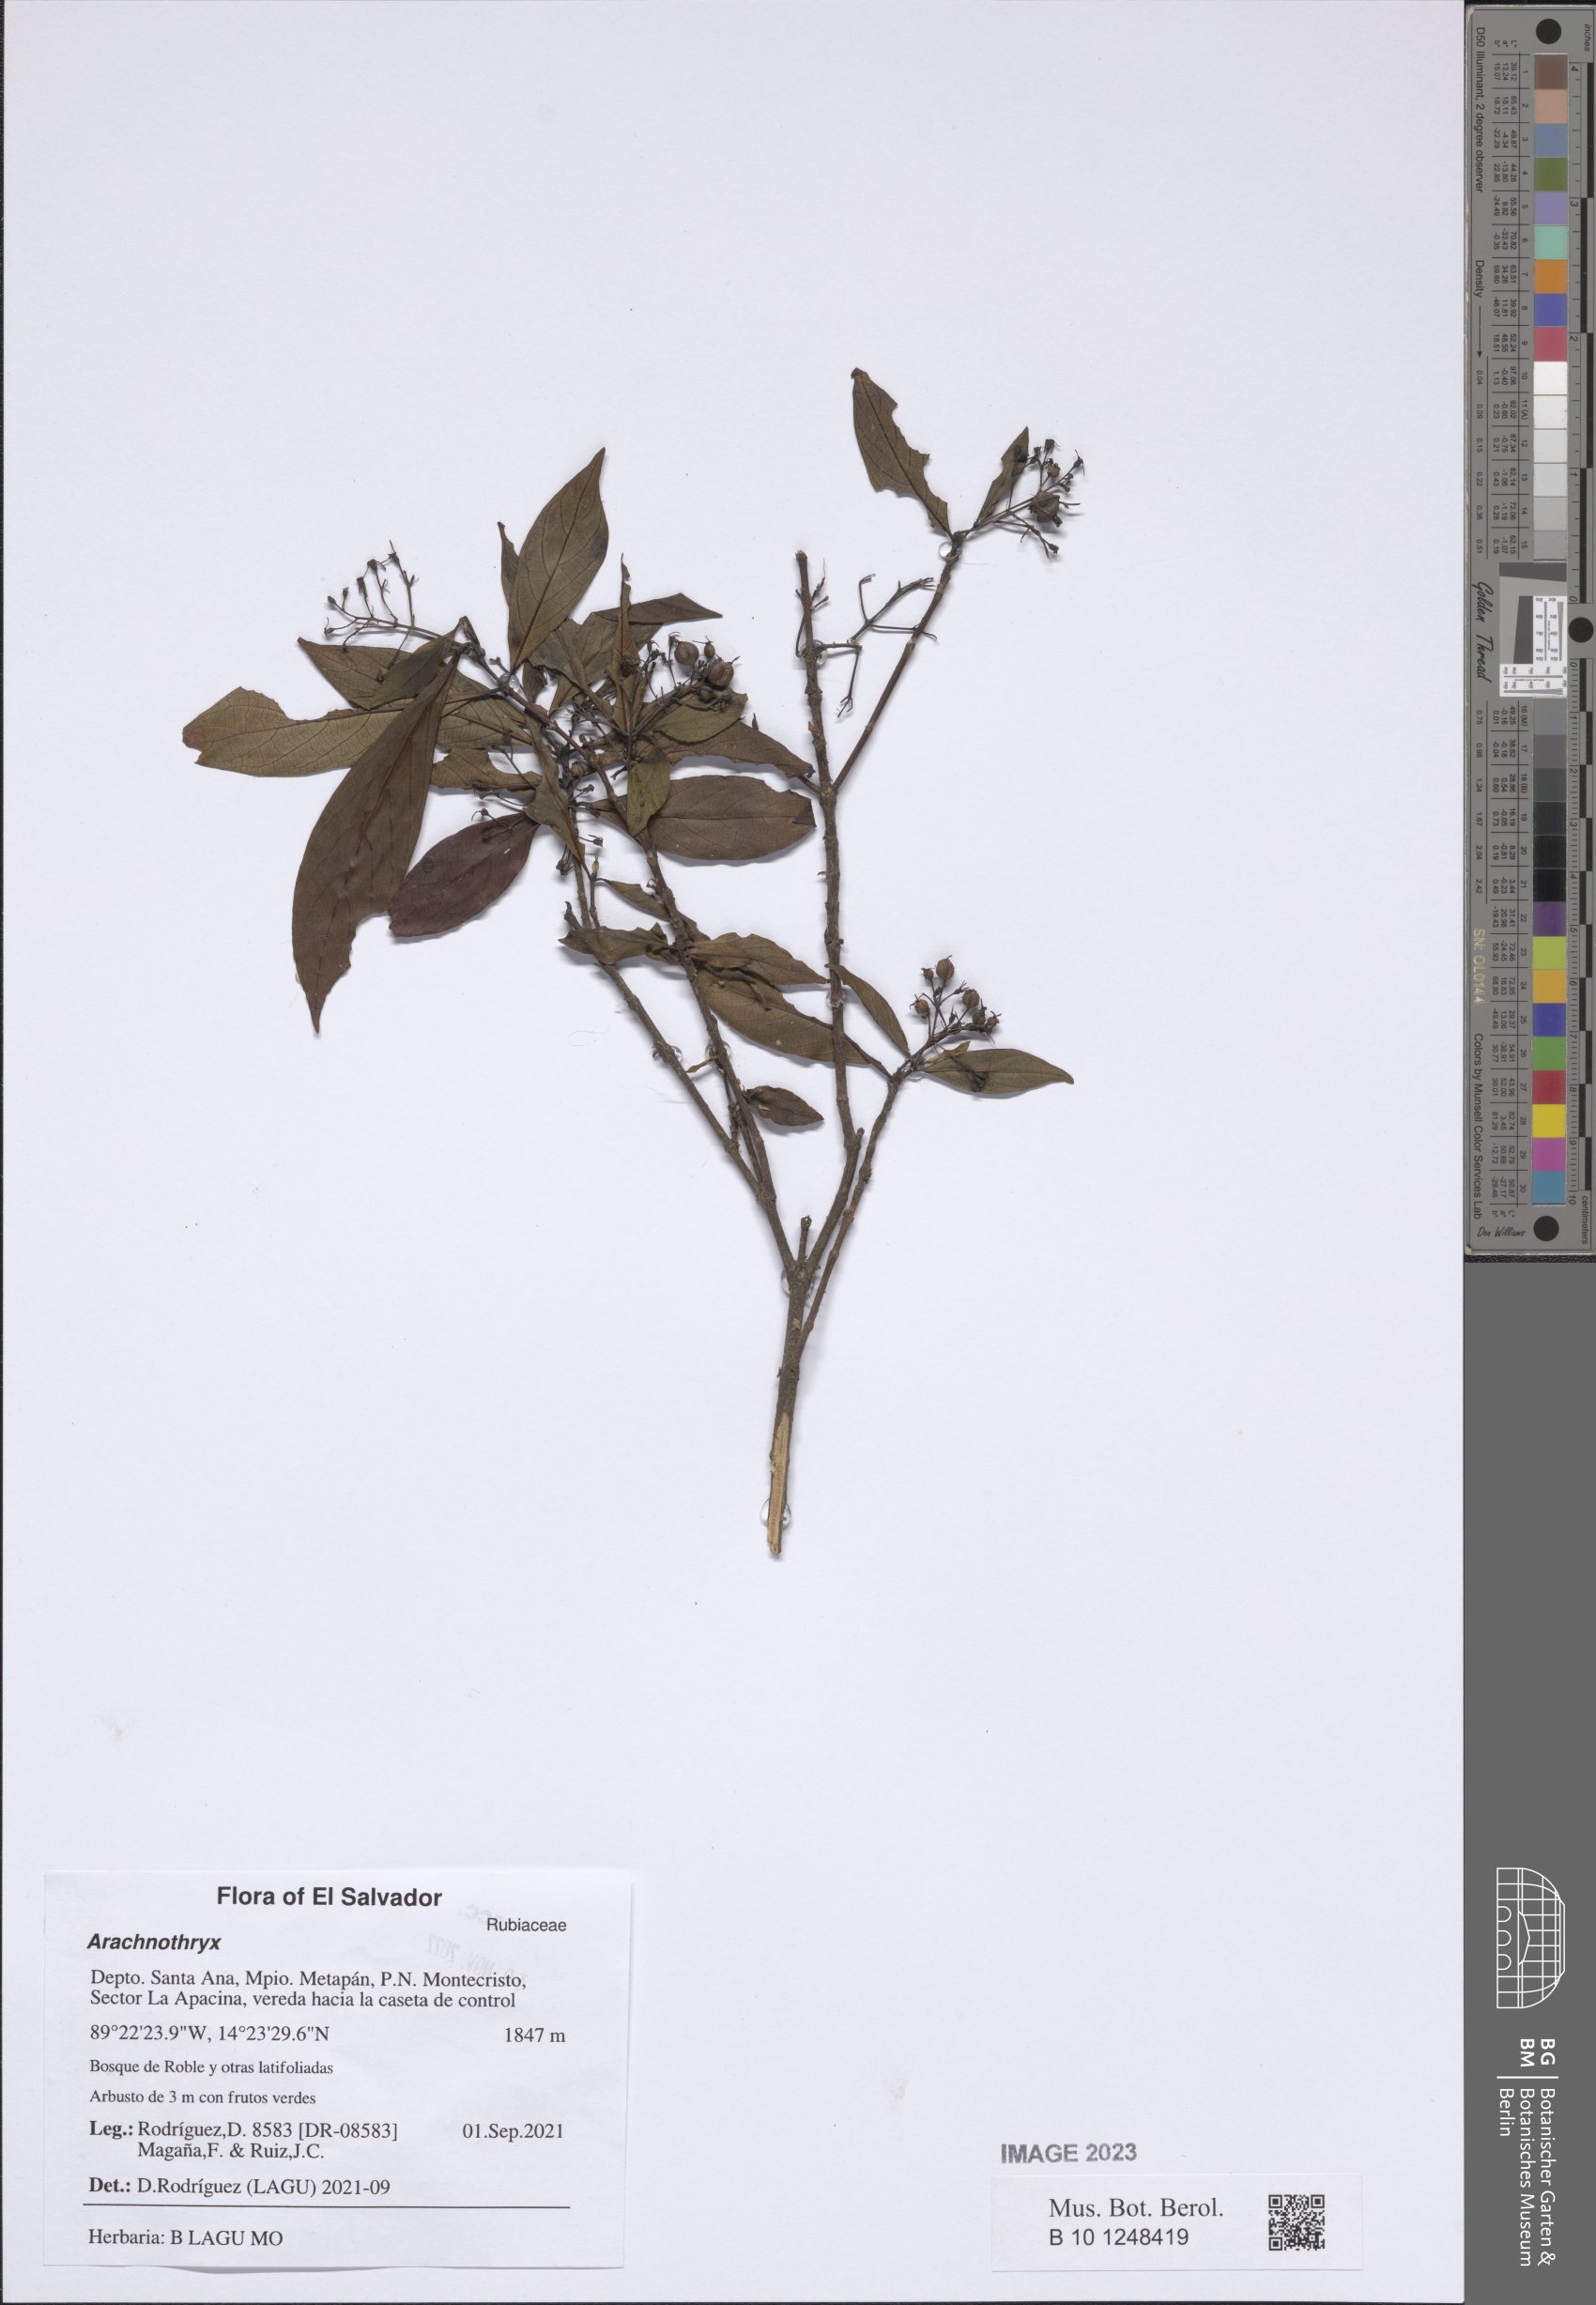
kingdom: Plantae
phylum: Tracheophyta
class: Magnoliopsida
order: Gentianales
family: Rubiaceae
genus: Arachnothryx
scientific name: Arachnothryx
